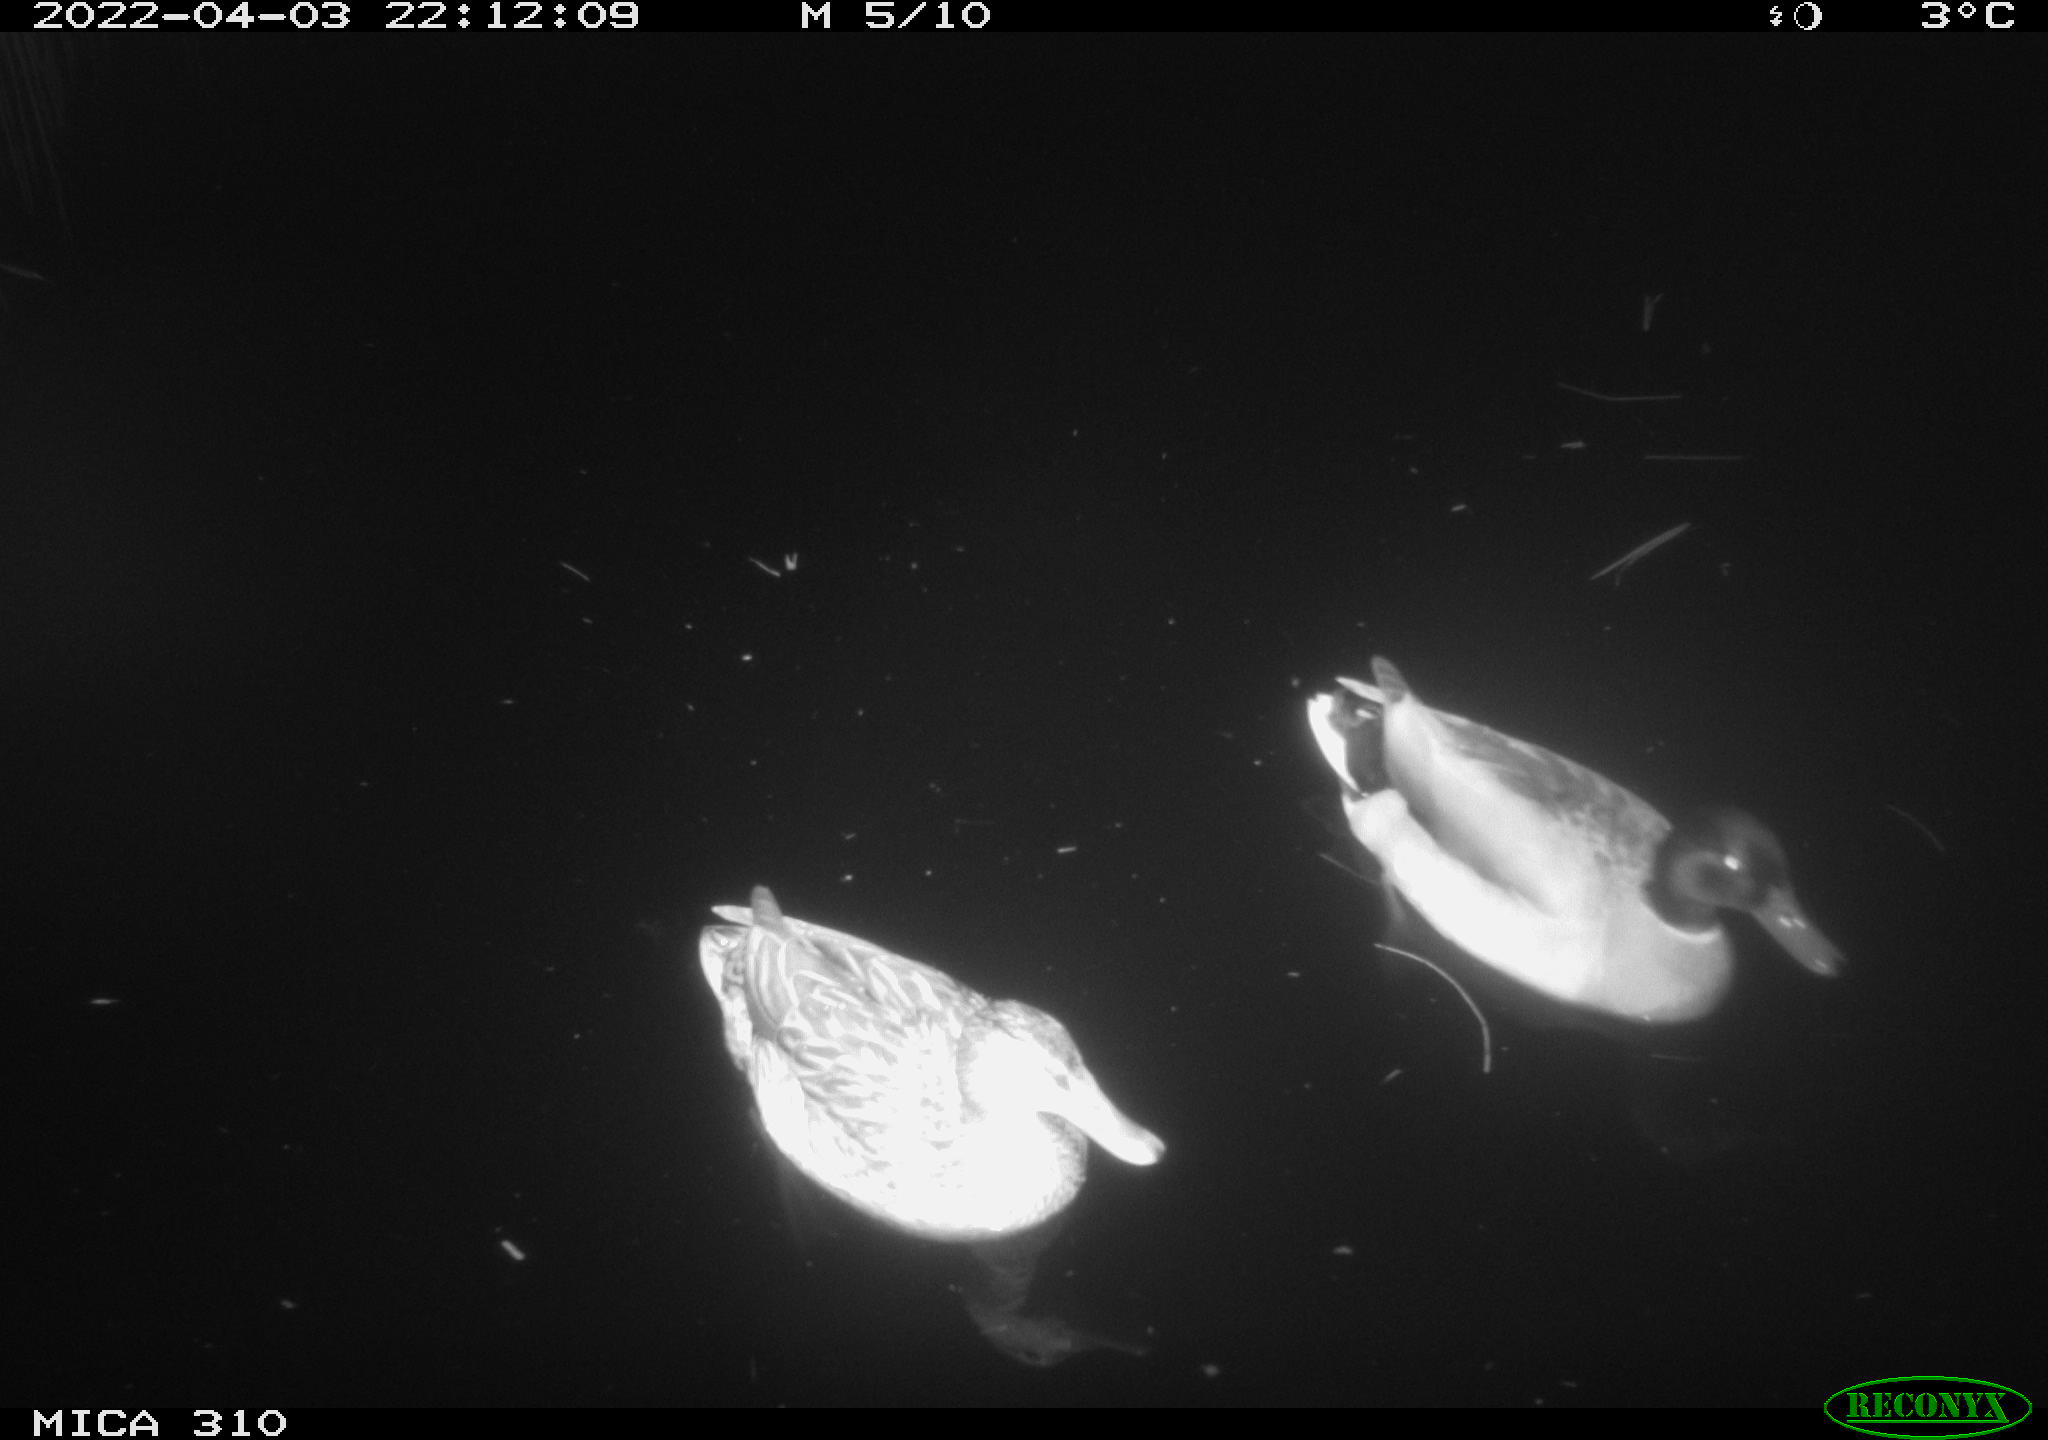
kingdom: Animalia
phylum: Chordata
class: Aves
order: Anseriformes
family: Anatidae
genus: Anas
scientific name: Anas platyrhynchos
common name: Mallard
